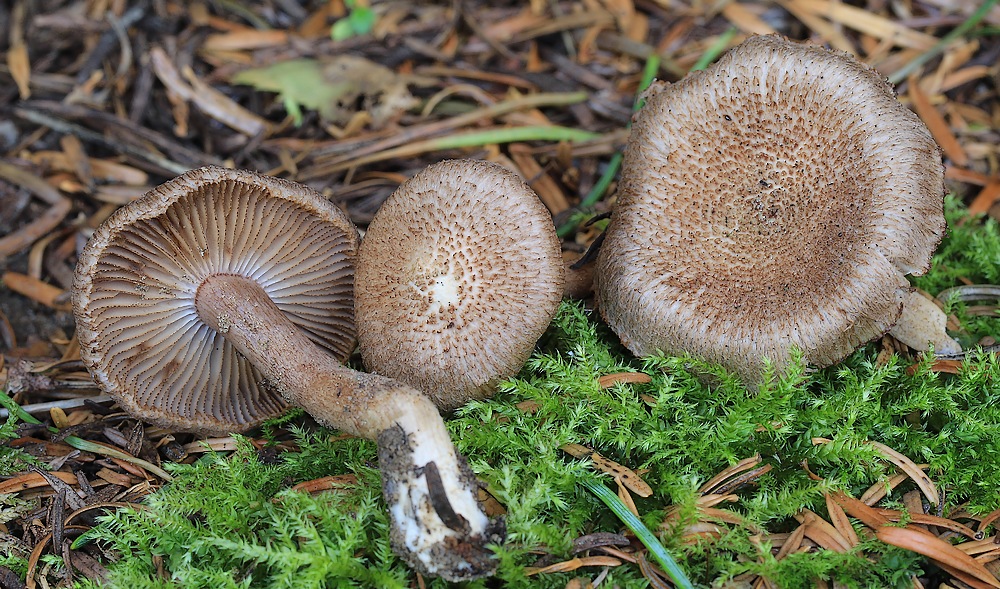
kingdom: Fungi
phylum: Basidiomycota
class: Agaricomycetes
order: Agaricales
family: Inocybaceae
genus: Inocybe
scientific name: Inocybe cincinnata
